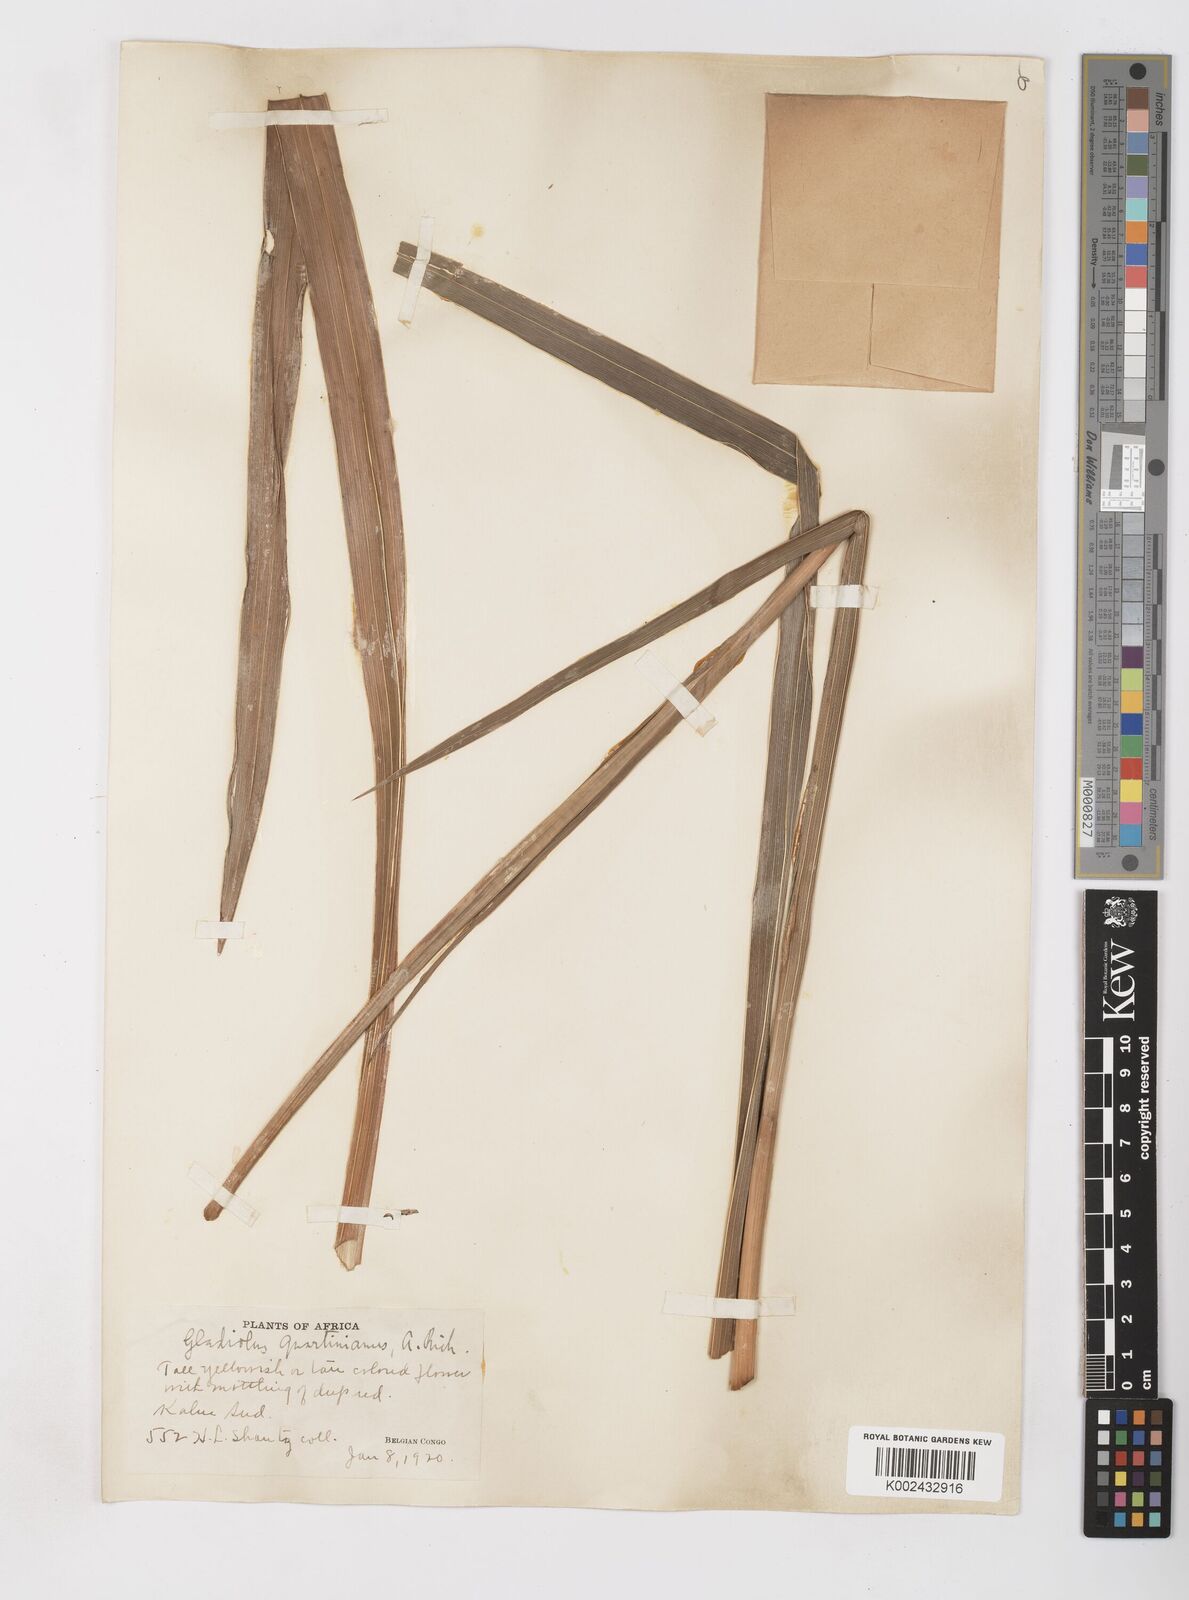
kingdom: Plantae
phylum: Tracheophyta
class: Liliopsida
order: Asparagales
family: Iridaceae
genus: Gladiolus
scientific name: Gladiolus dalenii
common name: Cornflag
